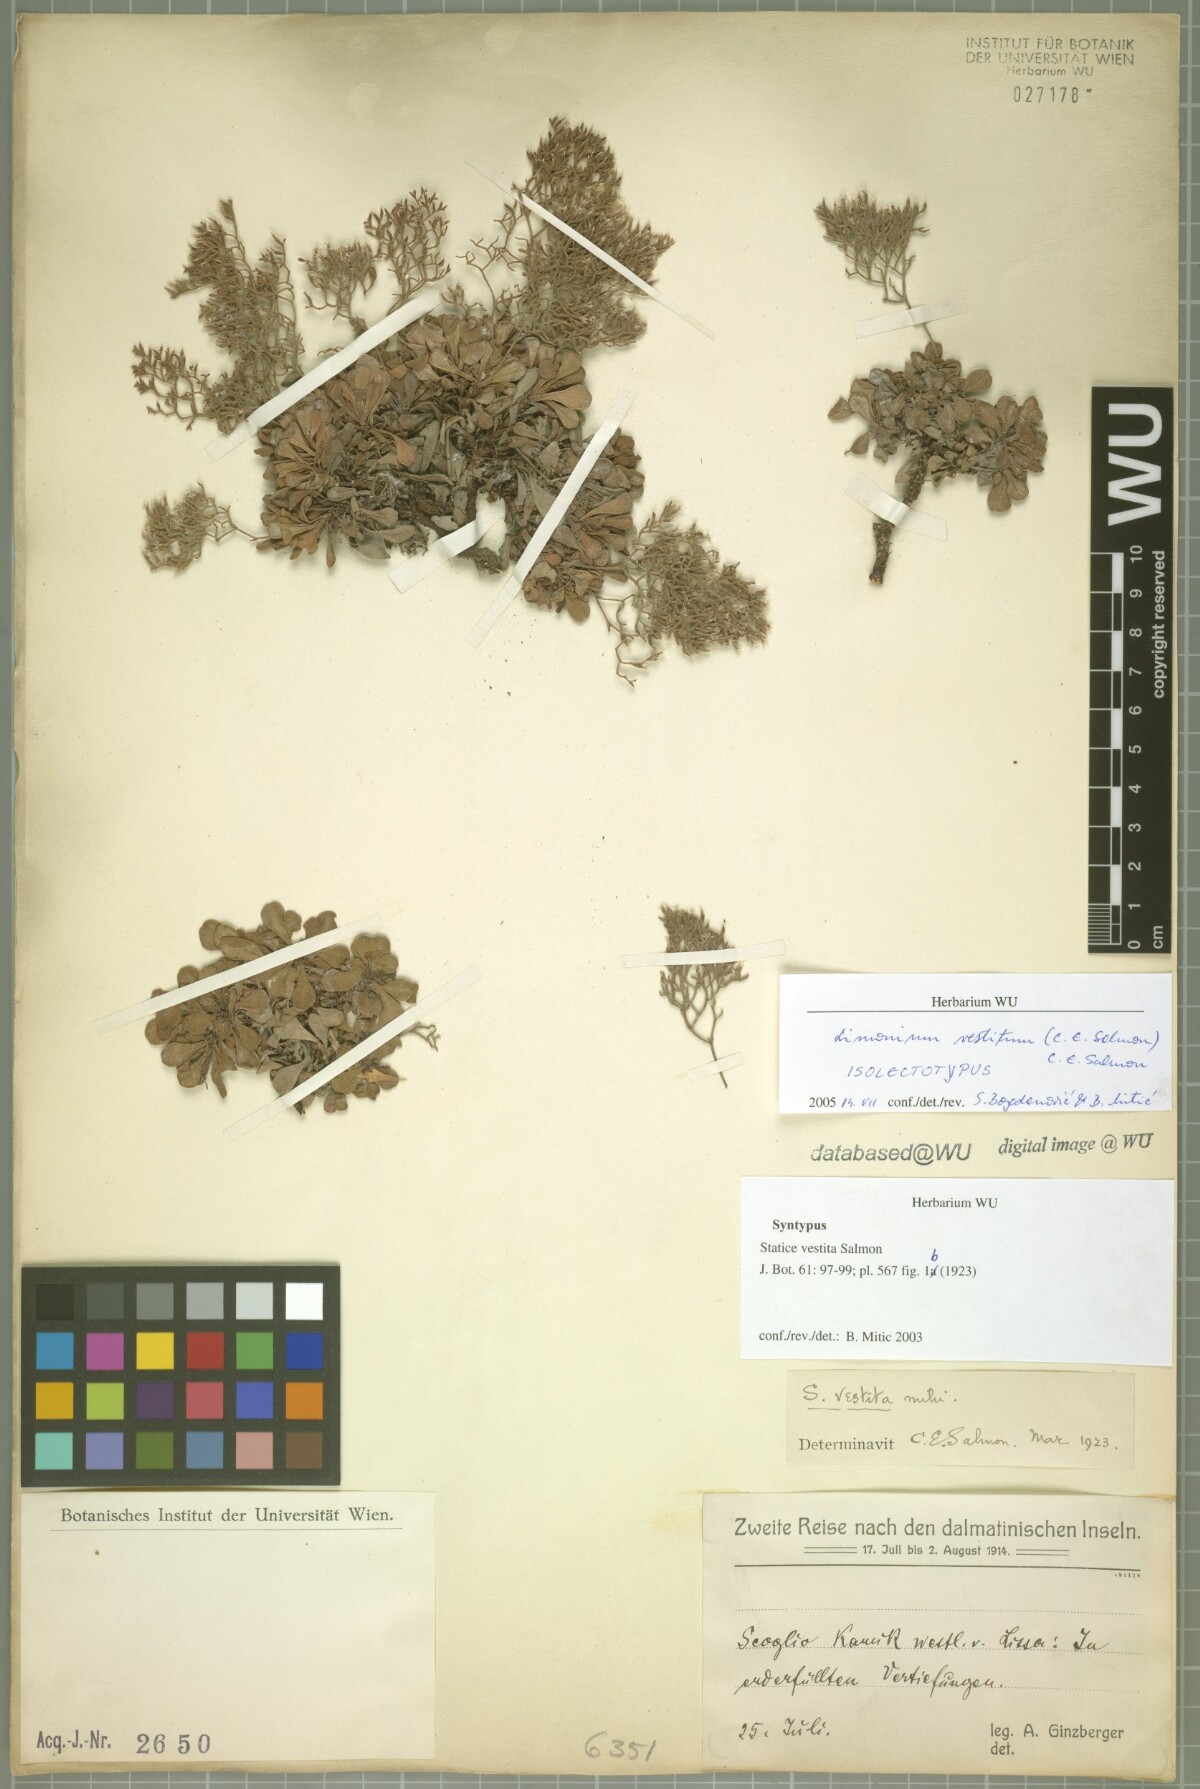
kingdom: Plantae
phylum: Tracheophyta
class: Magnoliopsida
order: Caryophyllales
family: Plumbaginaceae
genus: Limonium
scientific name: Limonium vestitum
